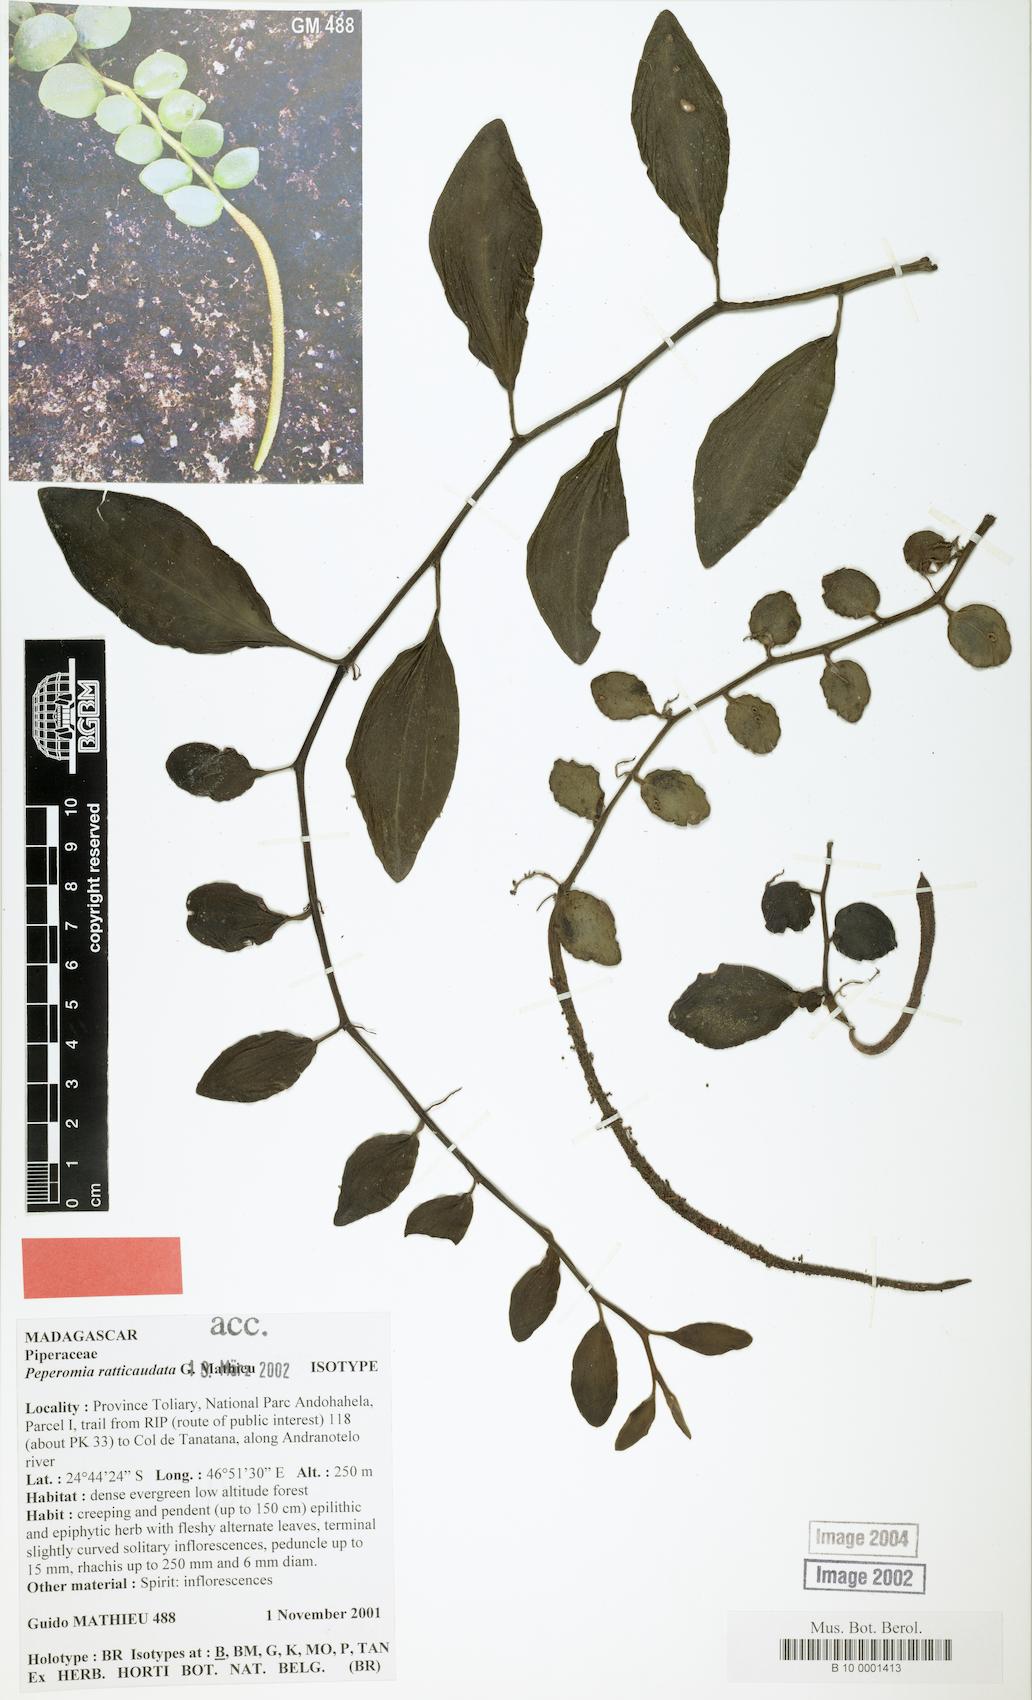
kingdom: Plantae
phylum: Tracheophyta
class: Magnoliopsida
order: Piperales
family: Piperaceae
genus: Peperomia
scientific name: Peperomia ratticaudata
